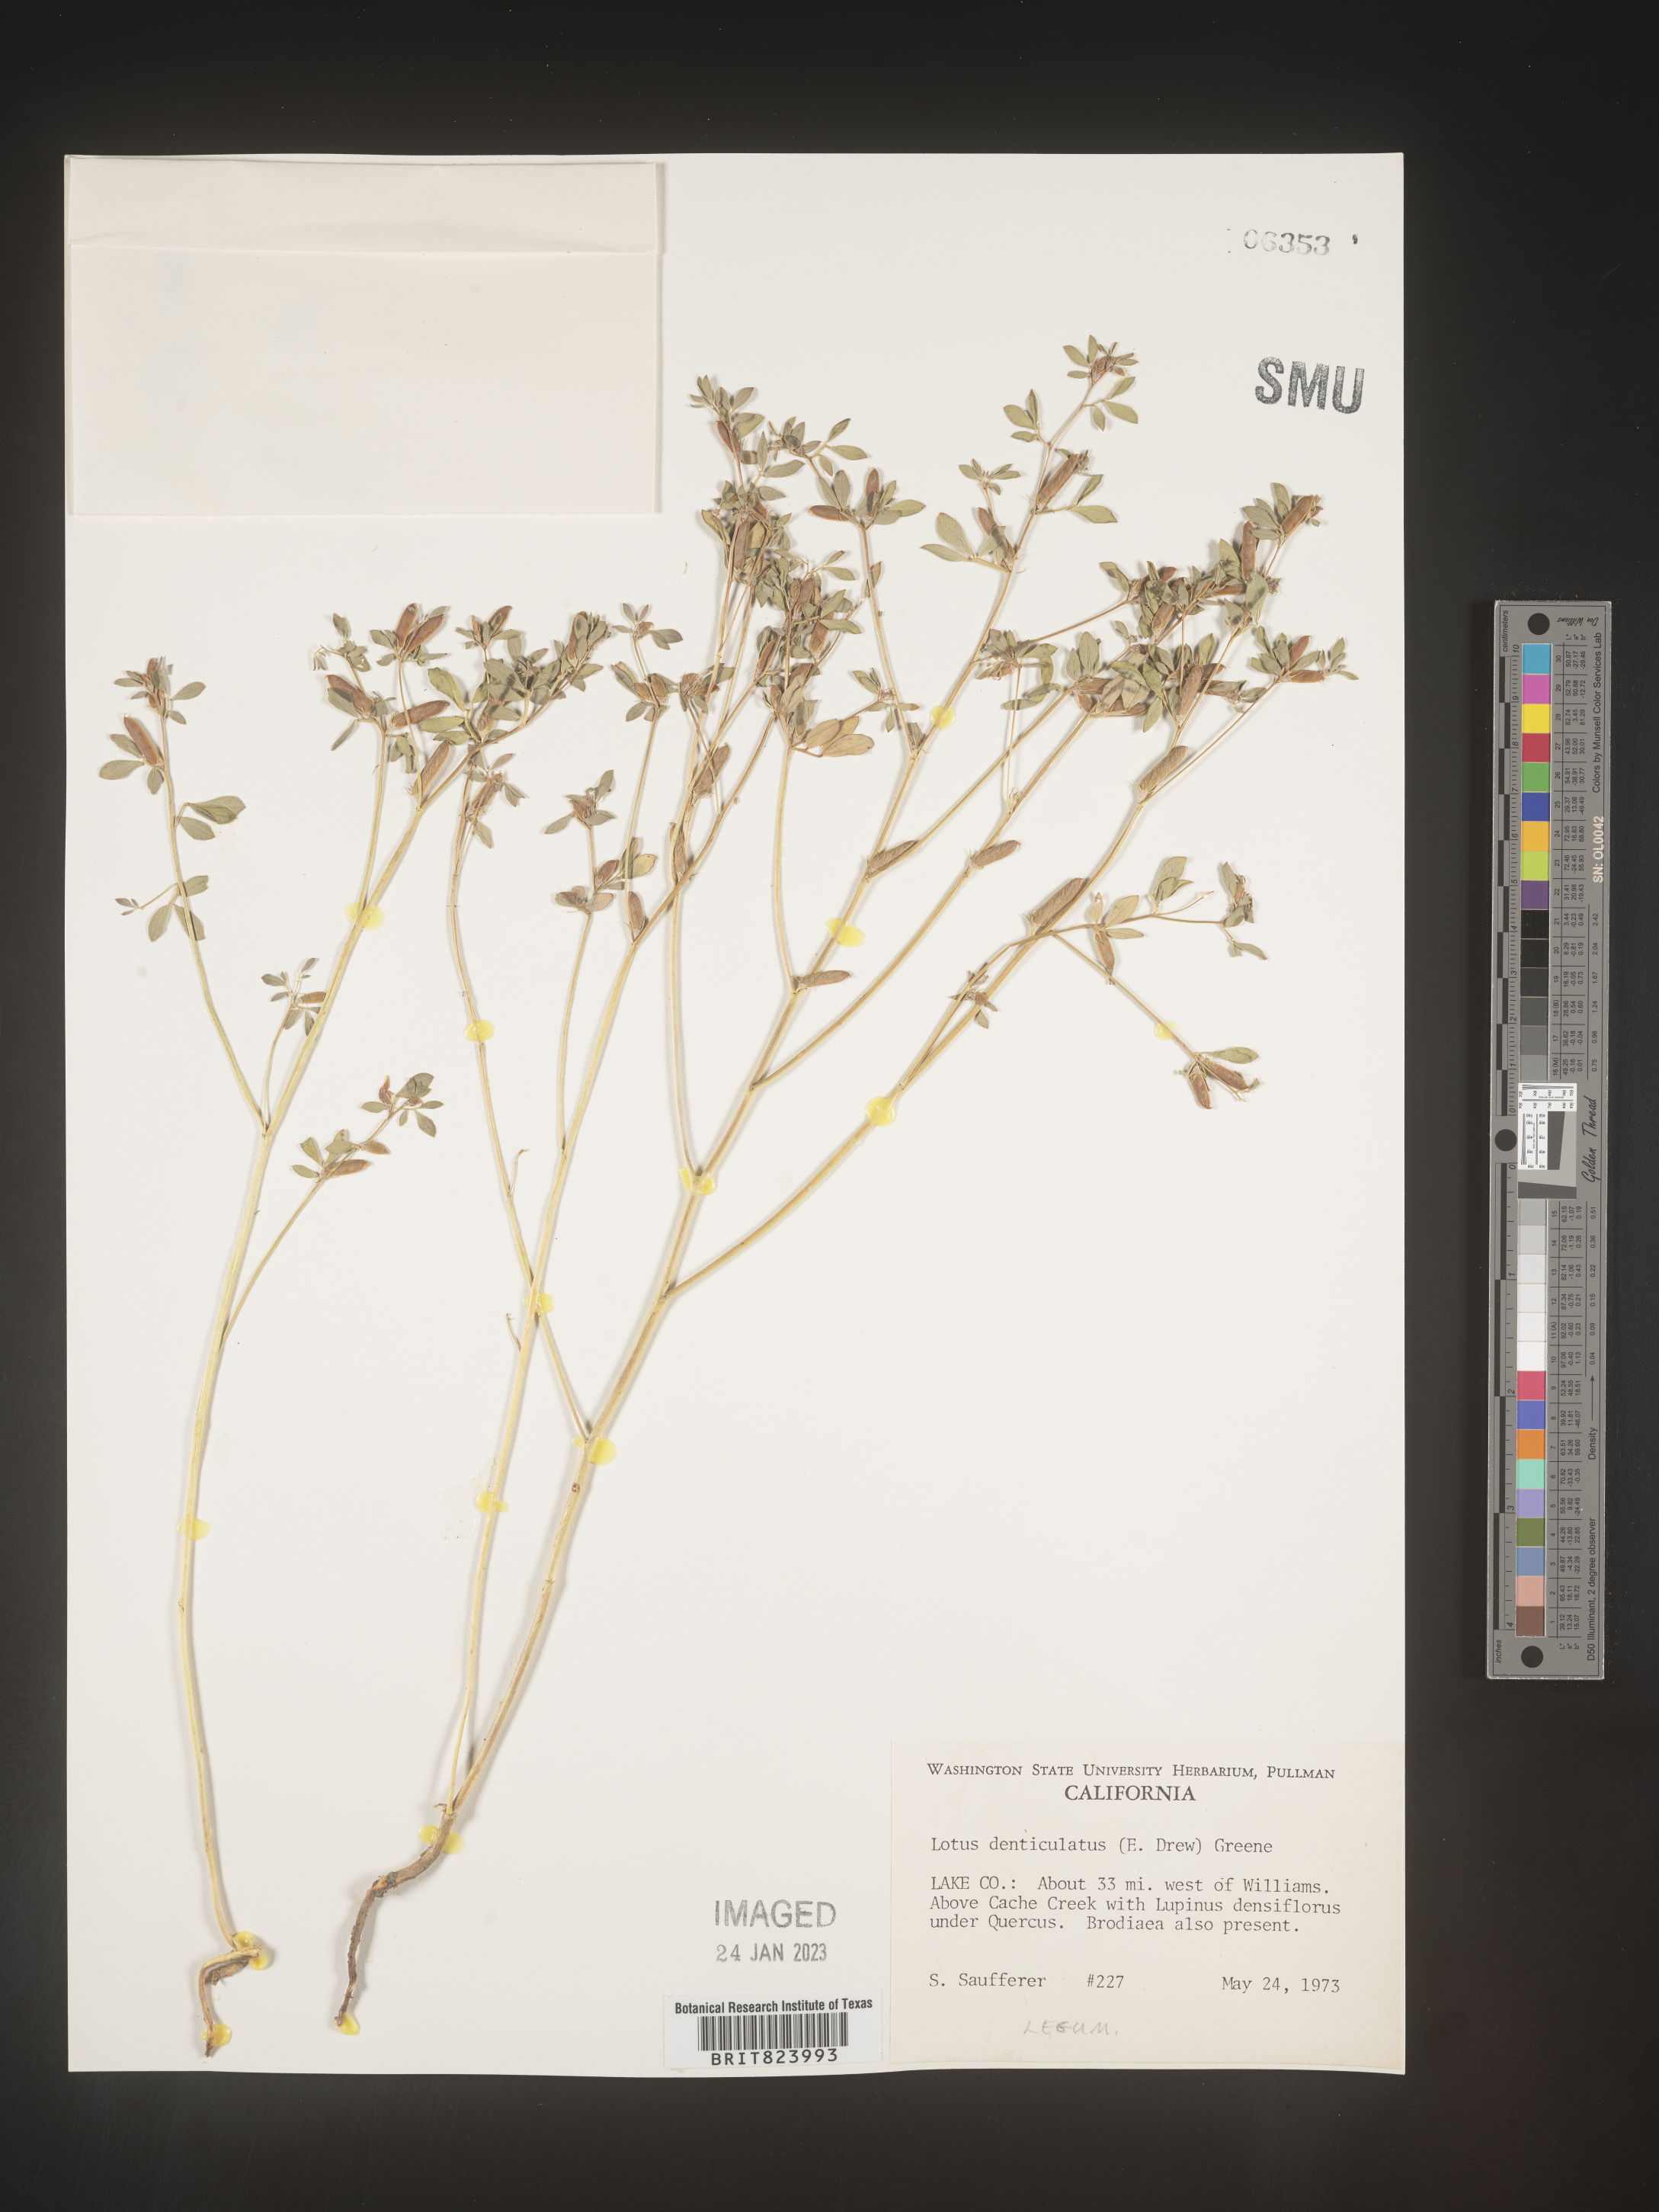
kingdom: Plantae
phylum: Tracheophyta
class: Magnoliopsida
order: Fabales
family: Fabaceae
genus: Lotus
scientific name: Lotus
